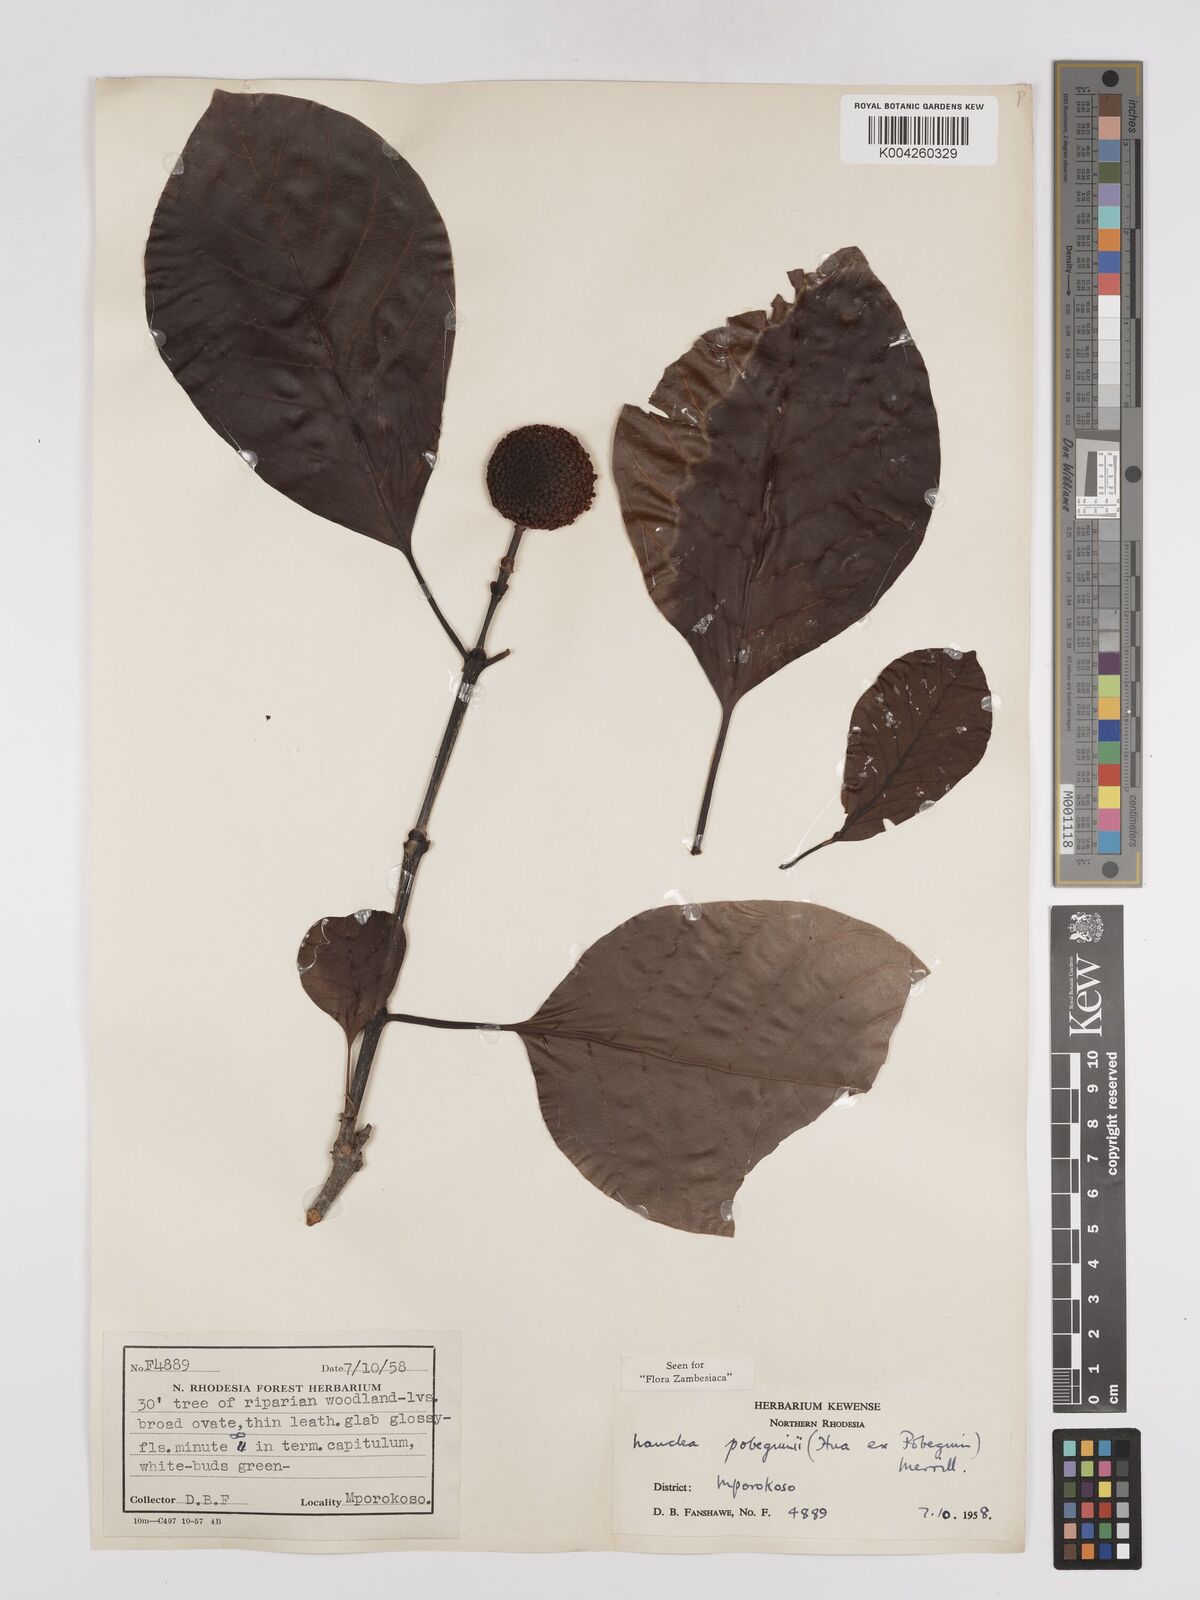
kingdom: Plantae
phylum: Tracheophyta
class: Magnoliopsida
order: Gentianales
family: Rubiaceae
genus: Nauclea
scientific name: Nauclea pobeguinii
